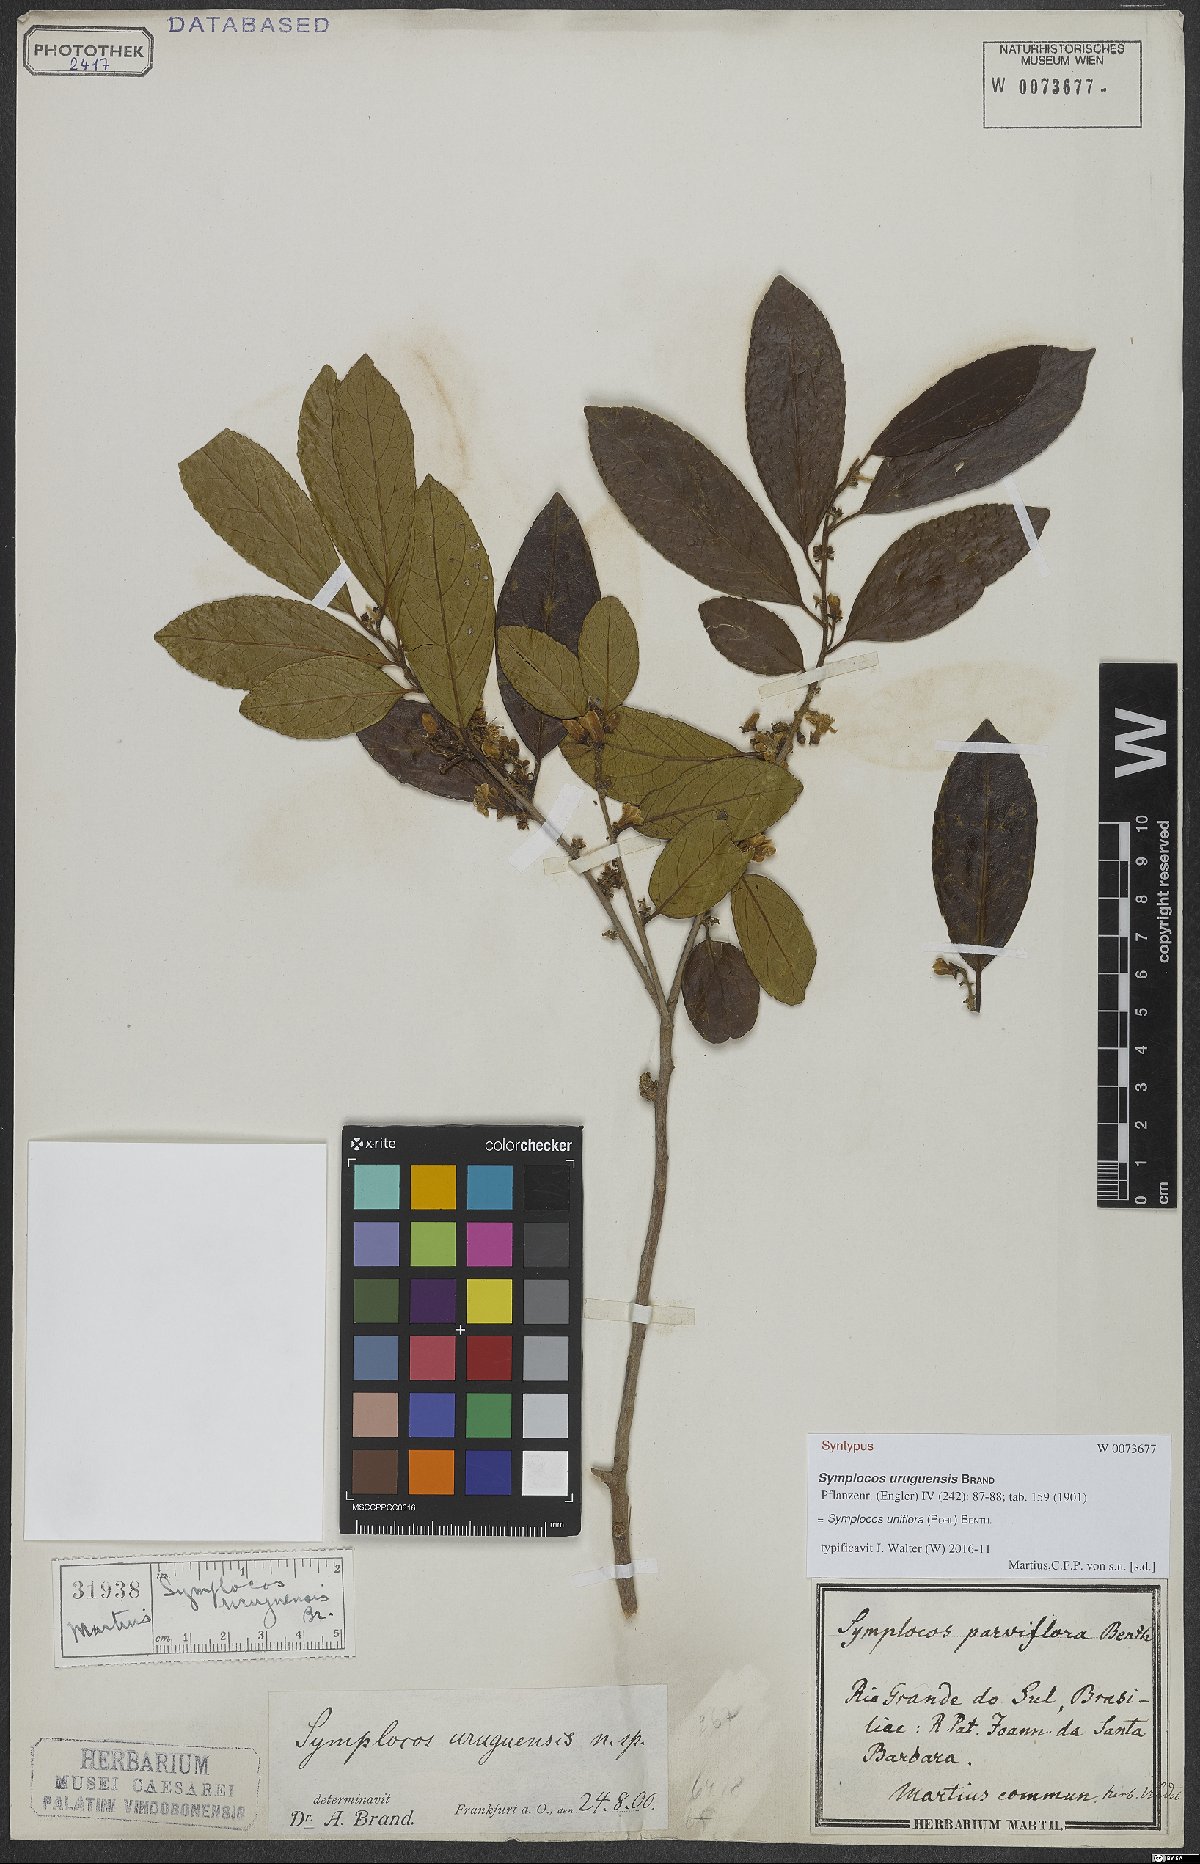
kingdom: Plantae
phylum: Tracheophyta
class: Magnoliopsida
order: Ericales
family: Symplocaceae
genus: Symplocos
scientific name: Symplocos uniflora
